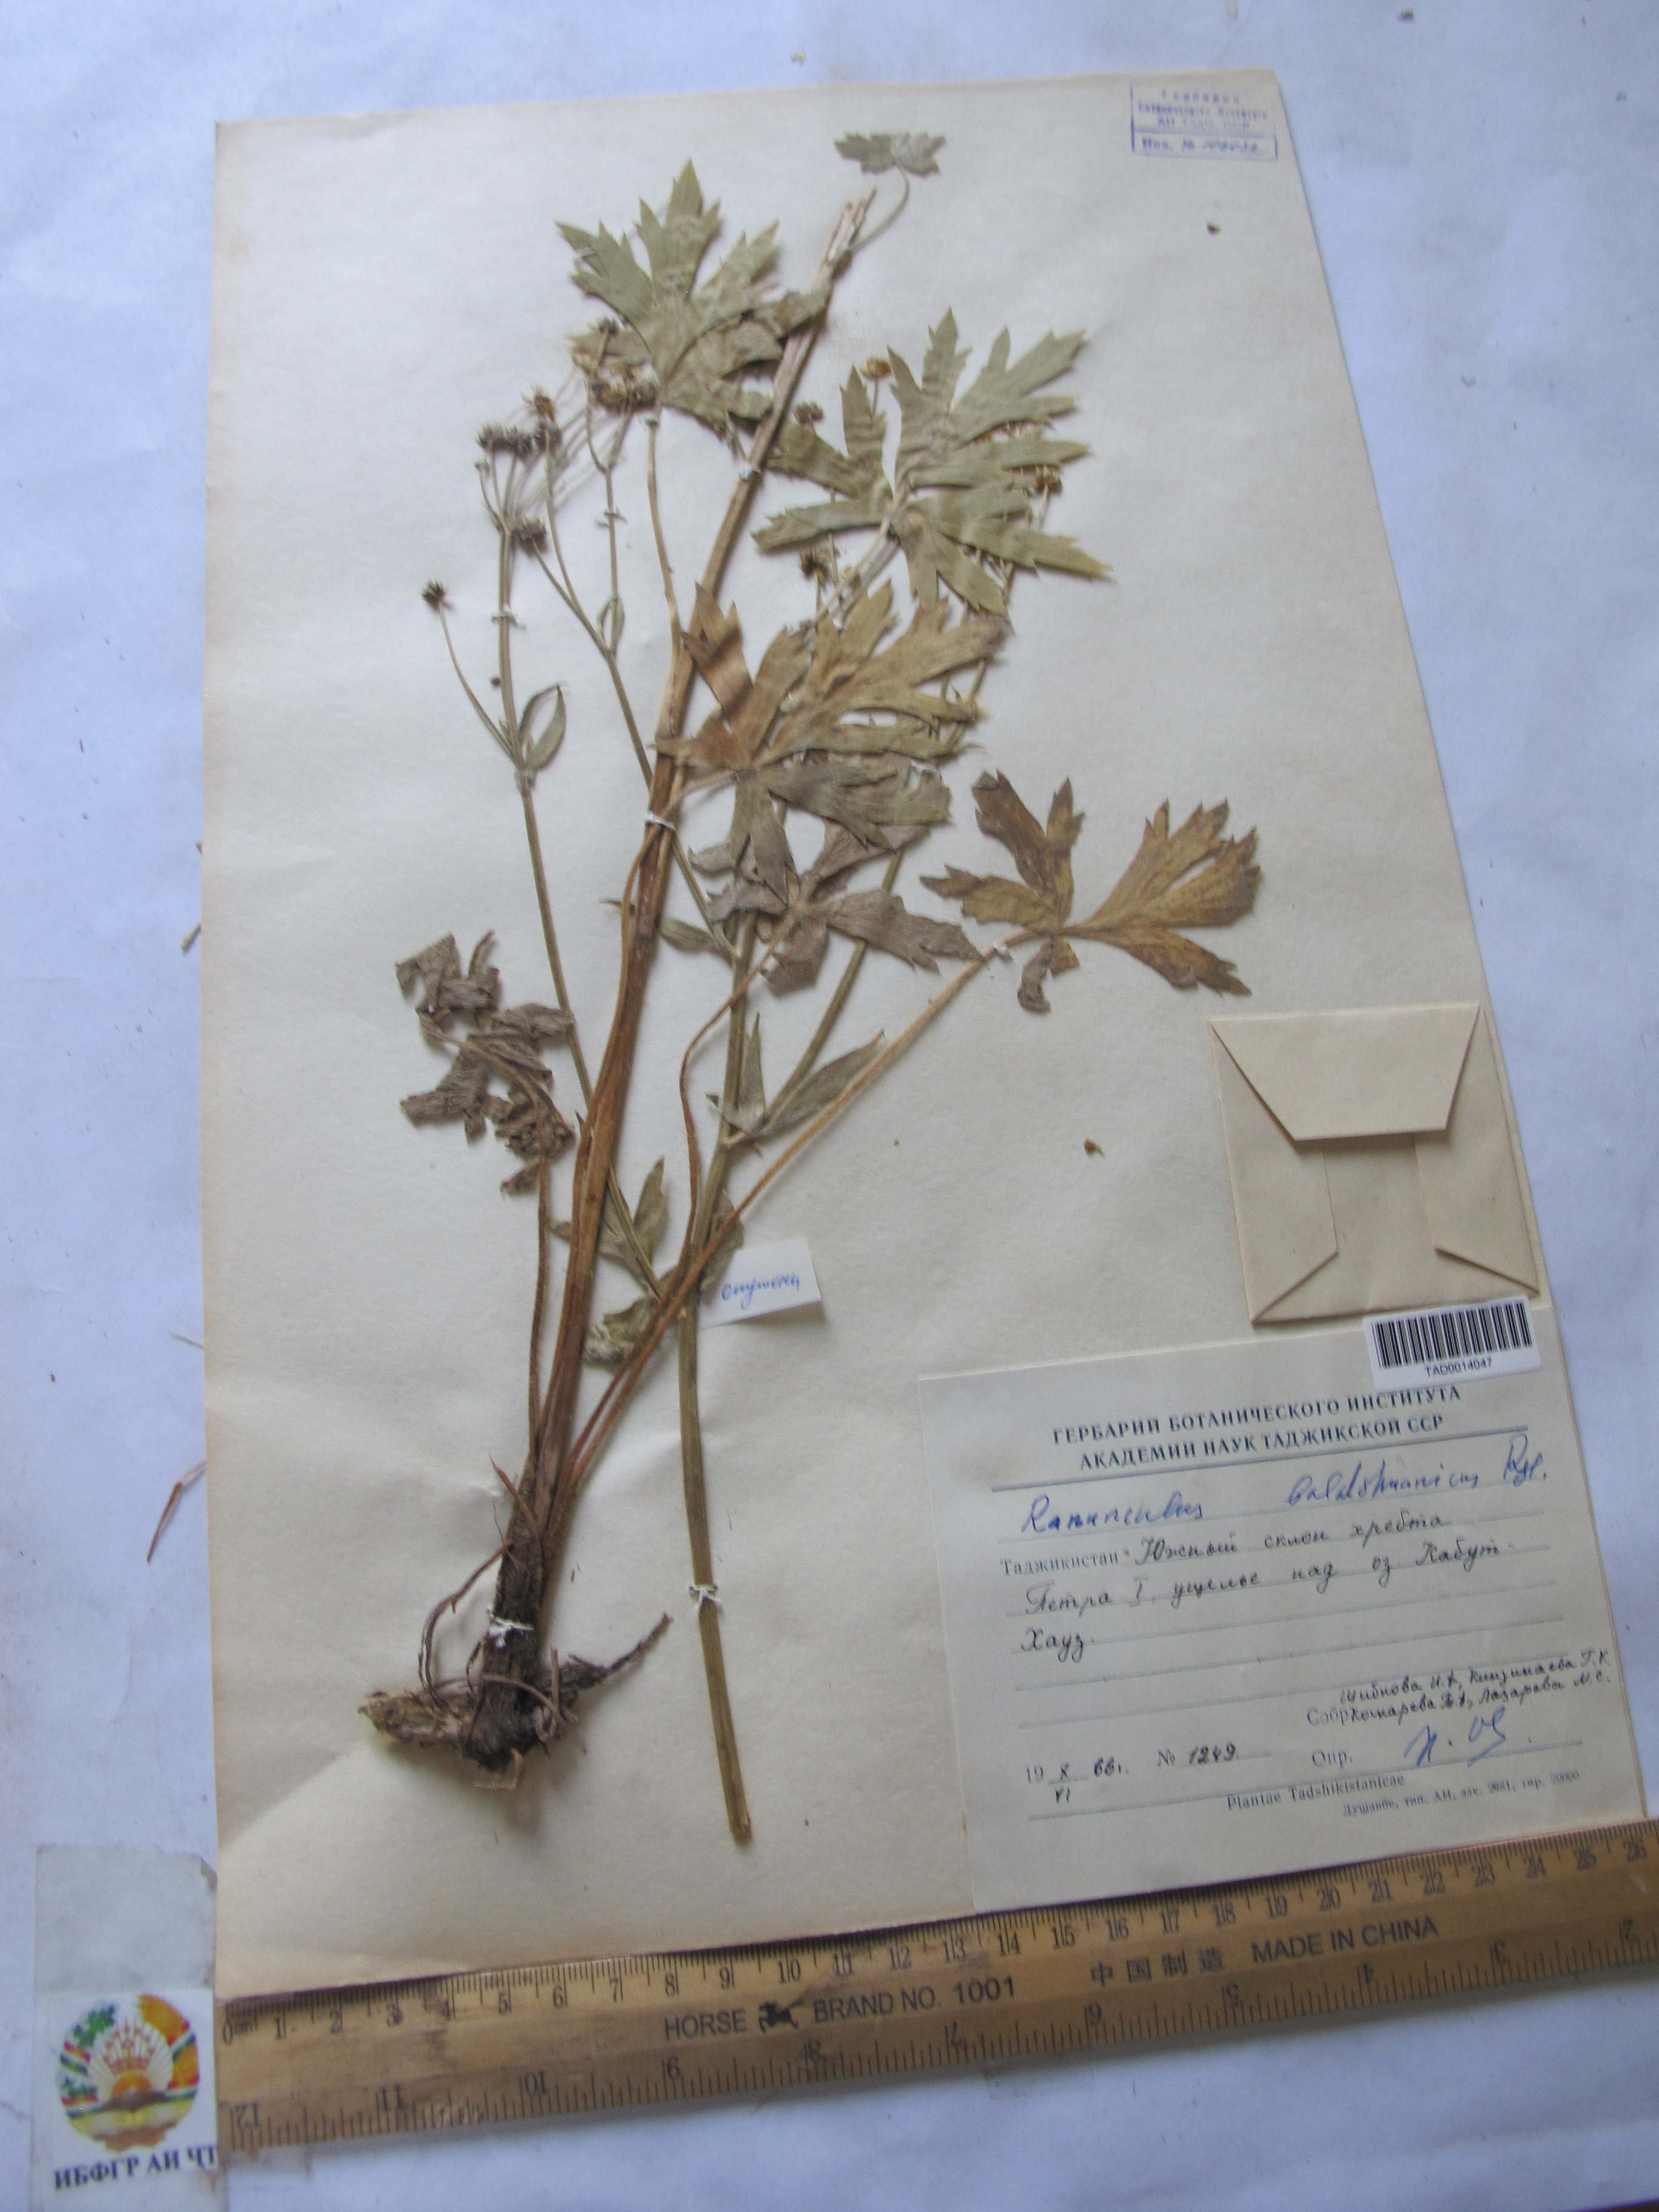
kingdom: Plantae
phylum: Tracheophyta
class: Magnoliopsida
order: Ranunculales
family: Ranunculaceae
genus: Ranunculus
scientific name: Ranunculus baldshuanicus
